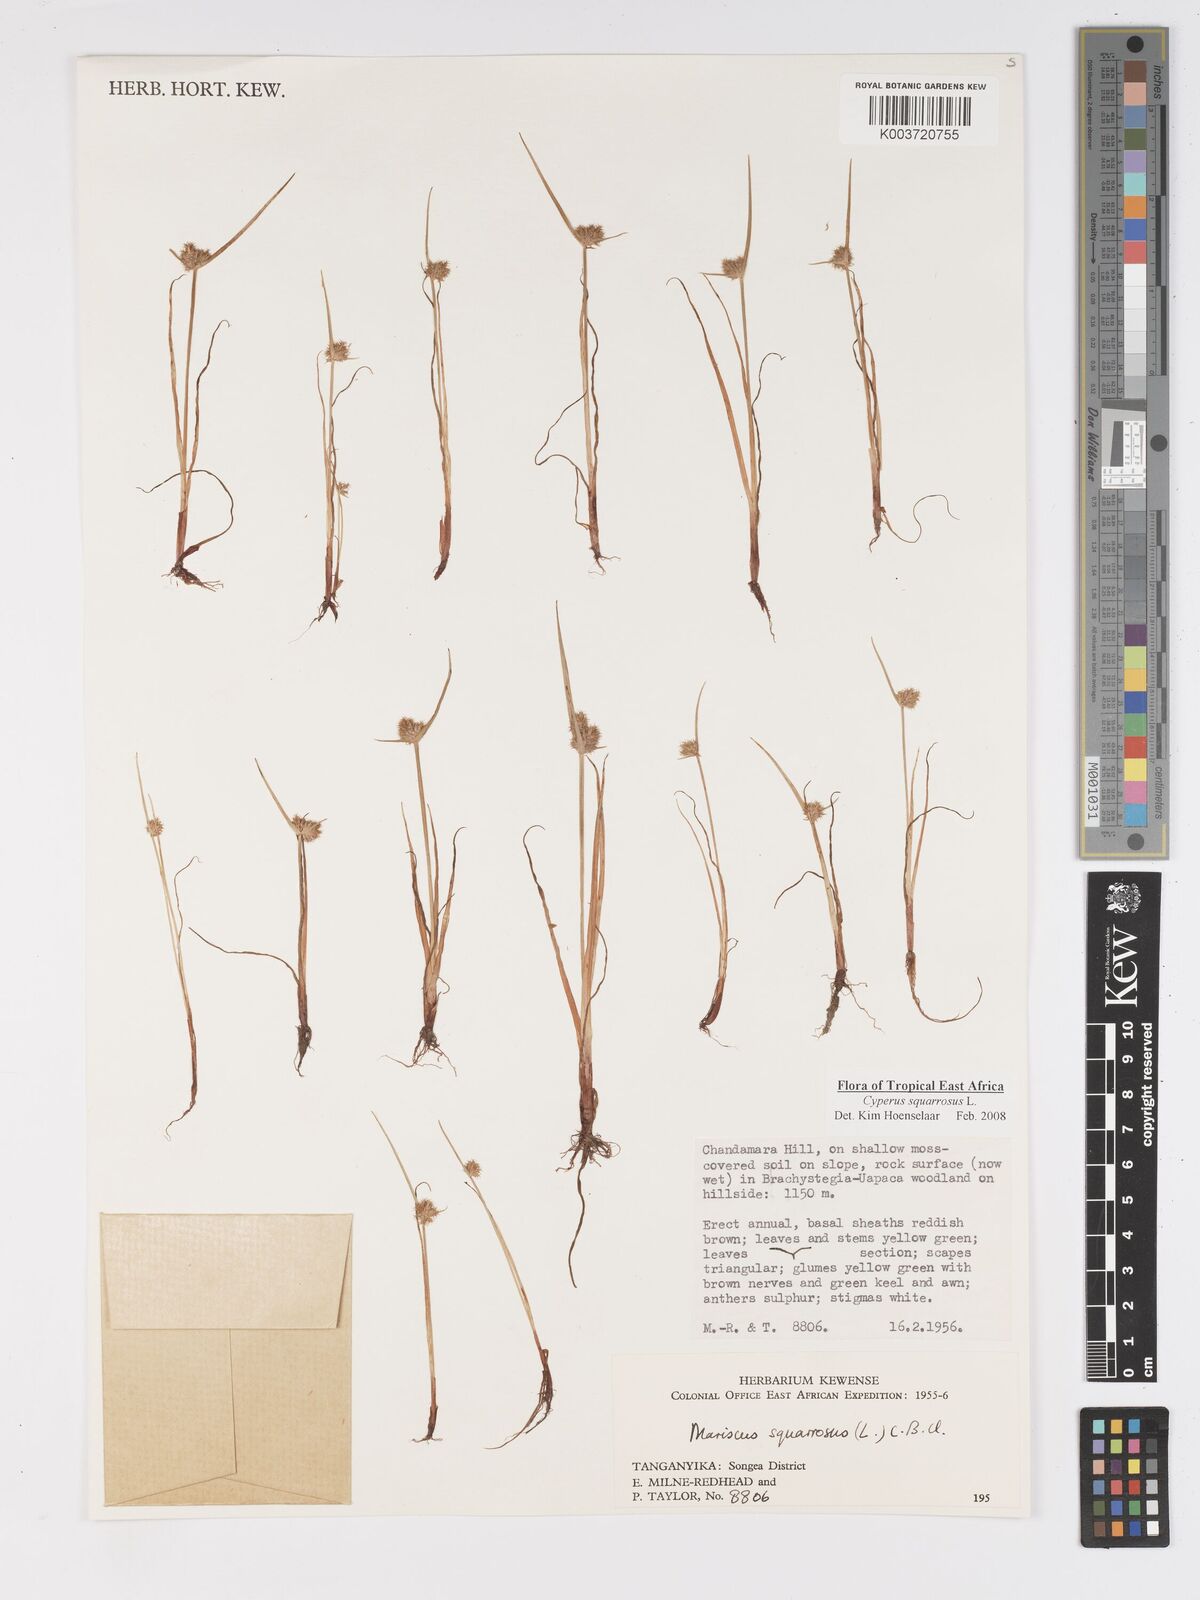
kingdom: Plantae
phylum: Tracheophyta
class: Liliopsida
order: Poales
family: Cyperaceae
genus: Cyperus
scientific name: Cyperus squarrosus
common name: Awned cyperus
